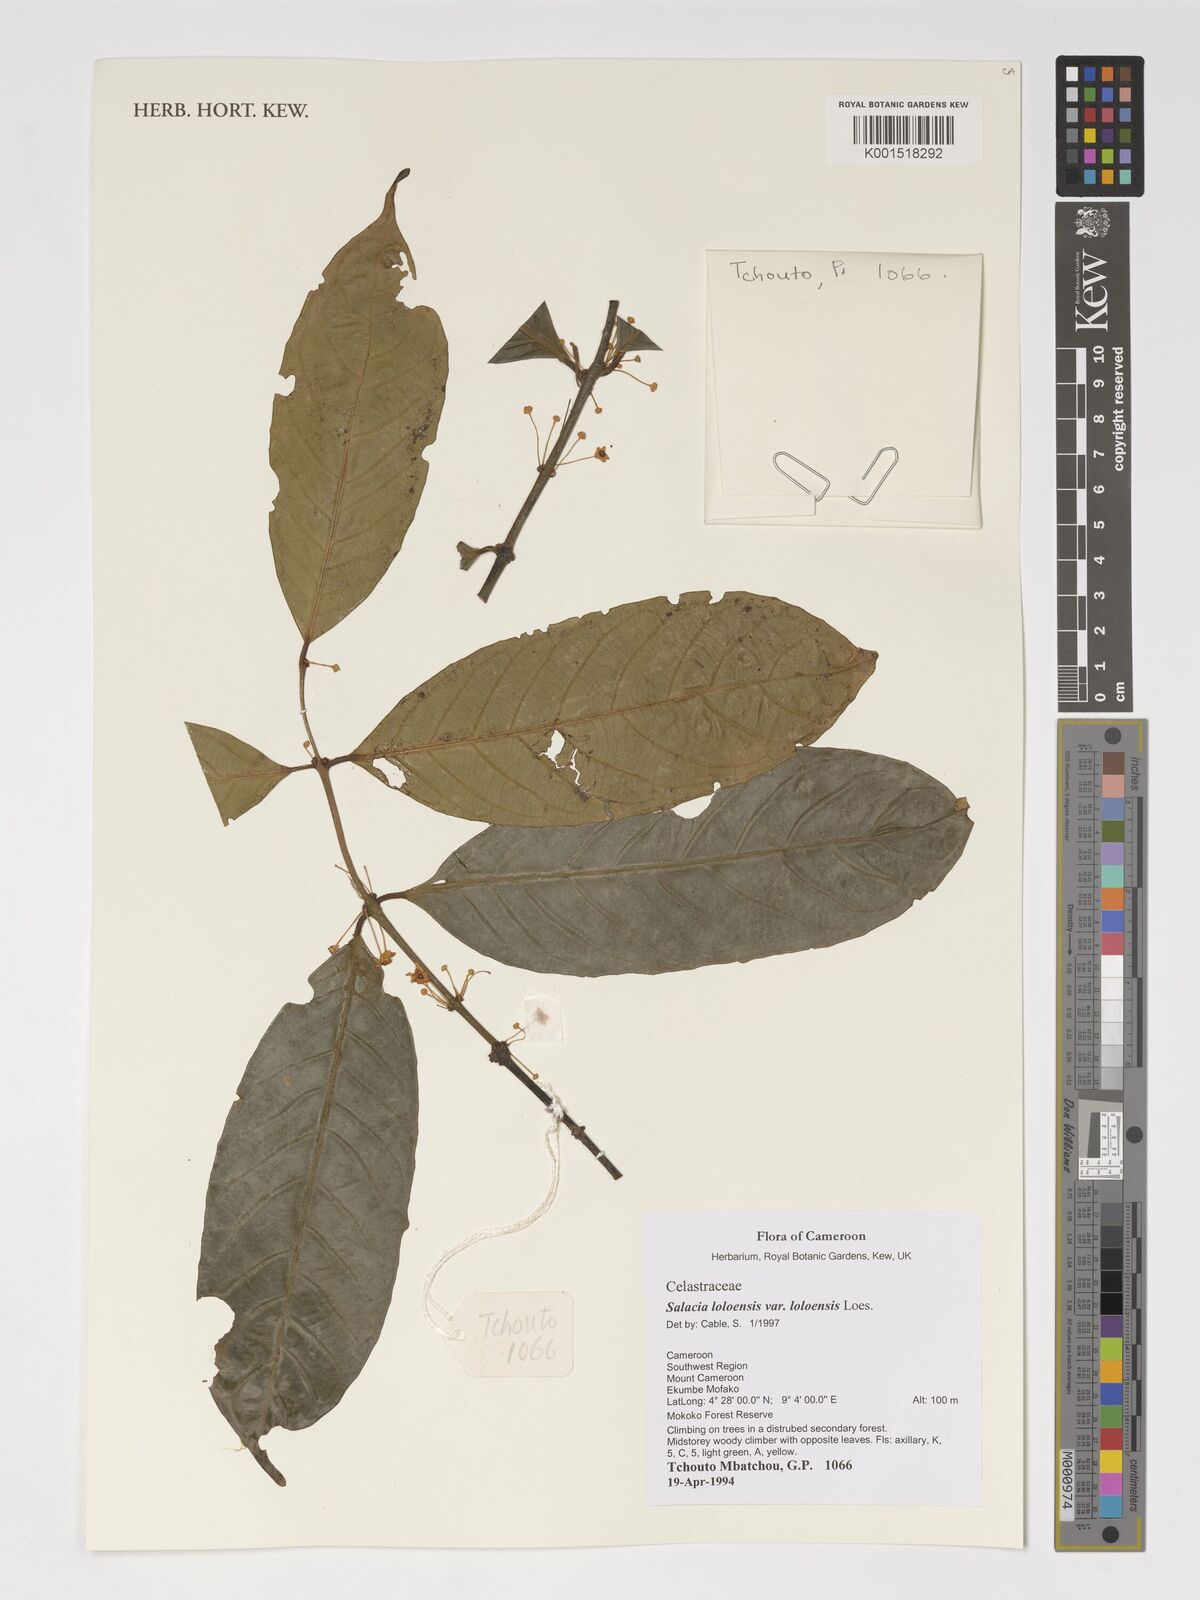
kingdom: Plantae
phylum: Tracheophyta
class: Magnoliopsida
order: Celastrales
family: Celastraceae
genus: Salacia
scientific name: Salacia loloensis
